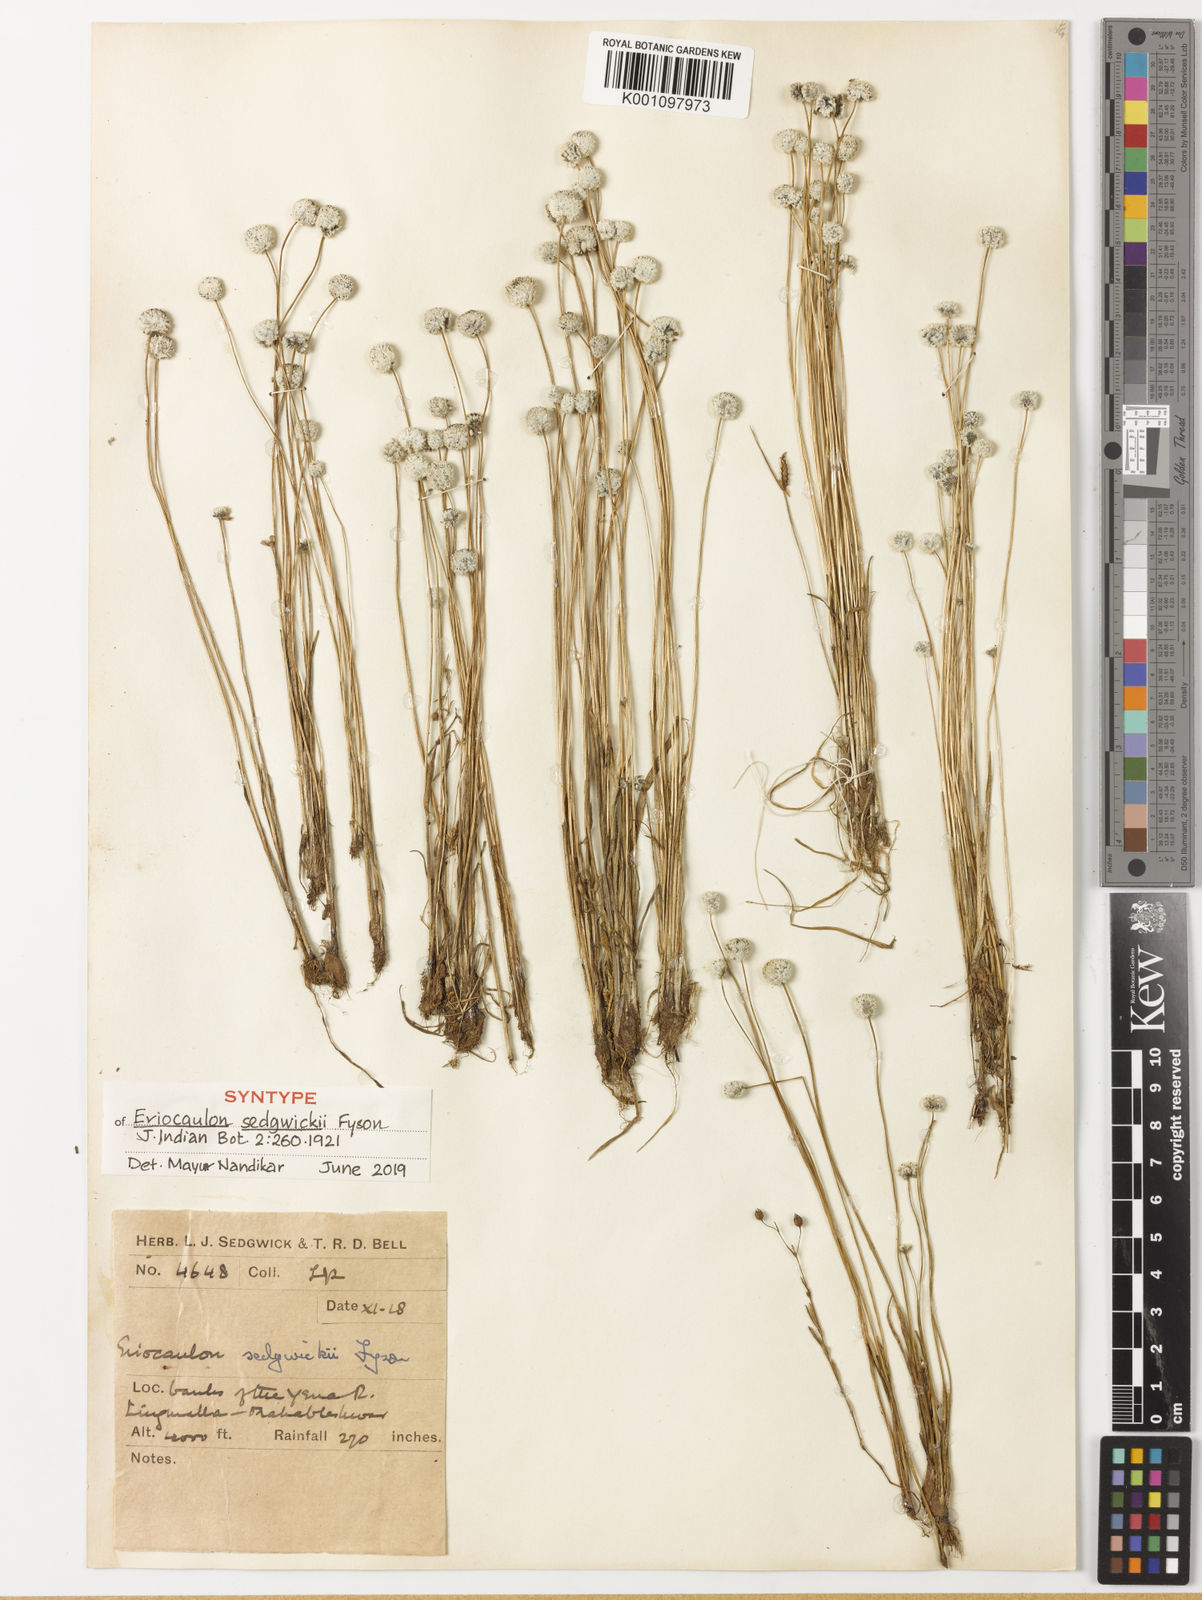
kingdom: Plantae
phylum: Tracheophyta
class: Liliopsida
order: Poales
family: Eriocaulaceae
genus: Eriocaulon
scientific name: Eriocaulon sedgwickii
